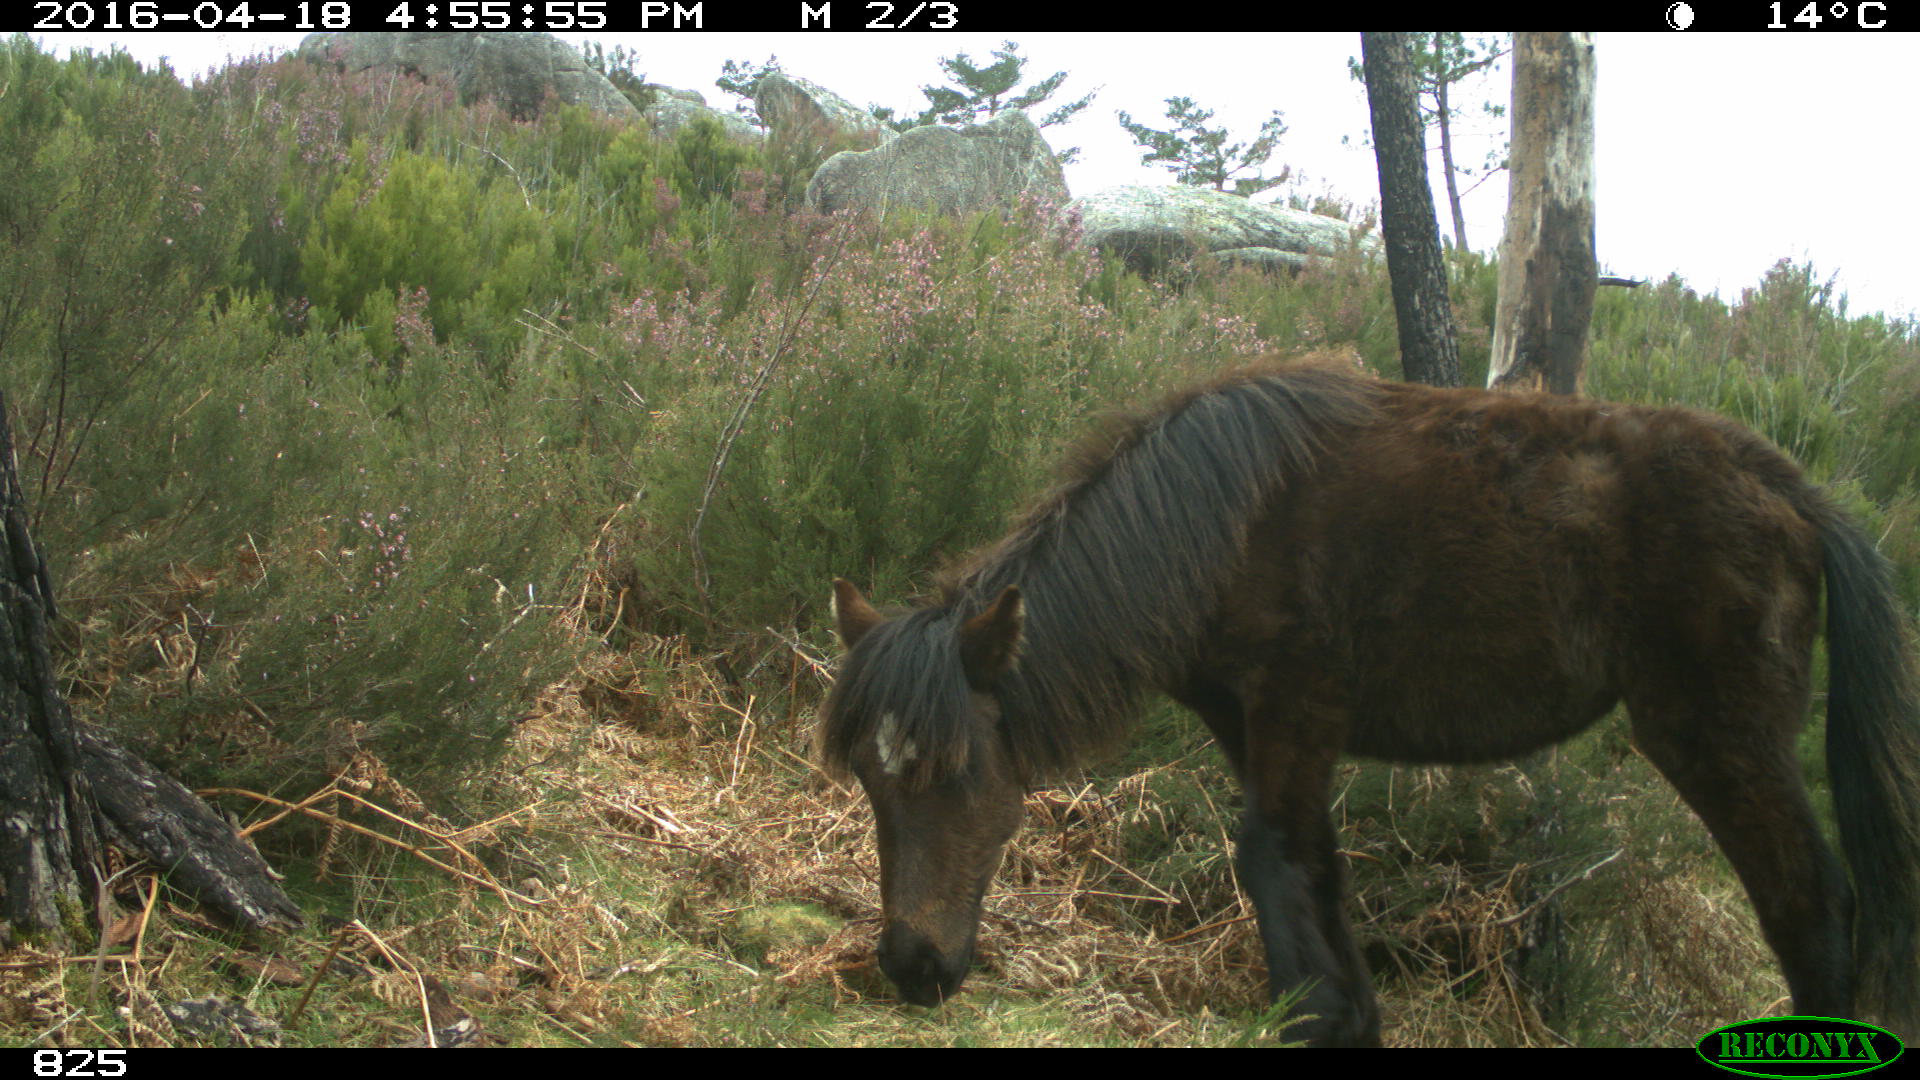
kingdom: Animalia
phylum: Chordata
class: Mammalia
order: Perissodactyla
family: Equidae
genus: Equus
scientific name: Equus caballus
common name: Horse
